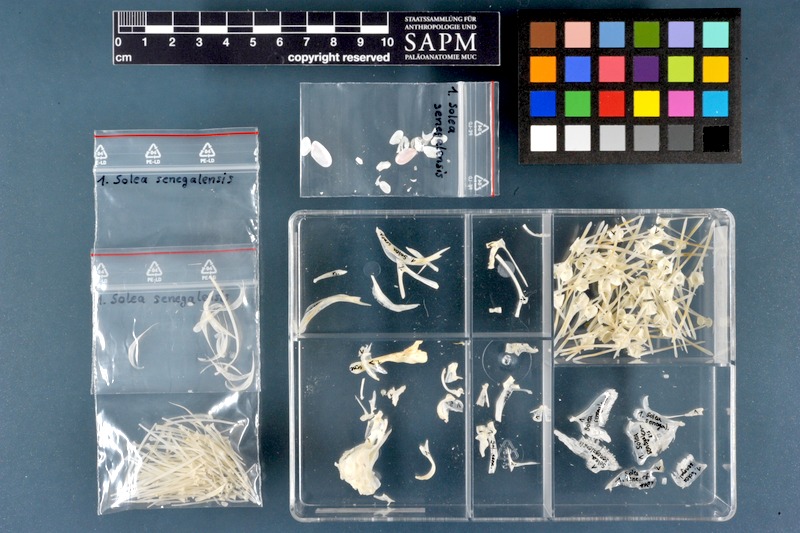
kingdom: Animalia
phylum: Chordata
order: Pleuronectiformes
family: Soleidae
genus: Solea
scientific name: Solea senegalensis
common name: Senegalese sole
